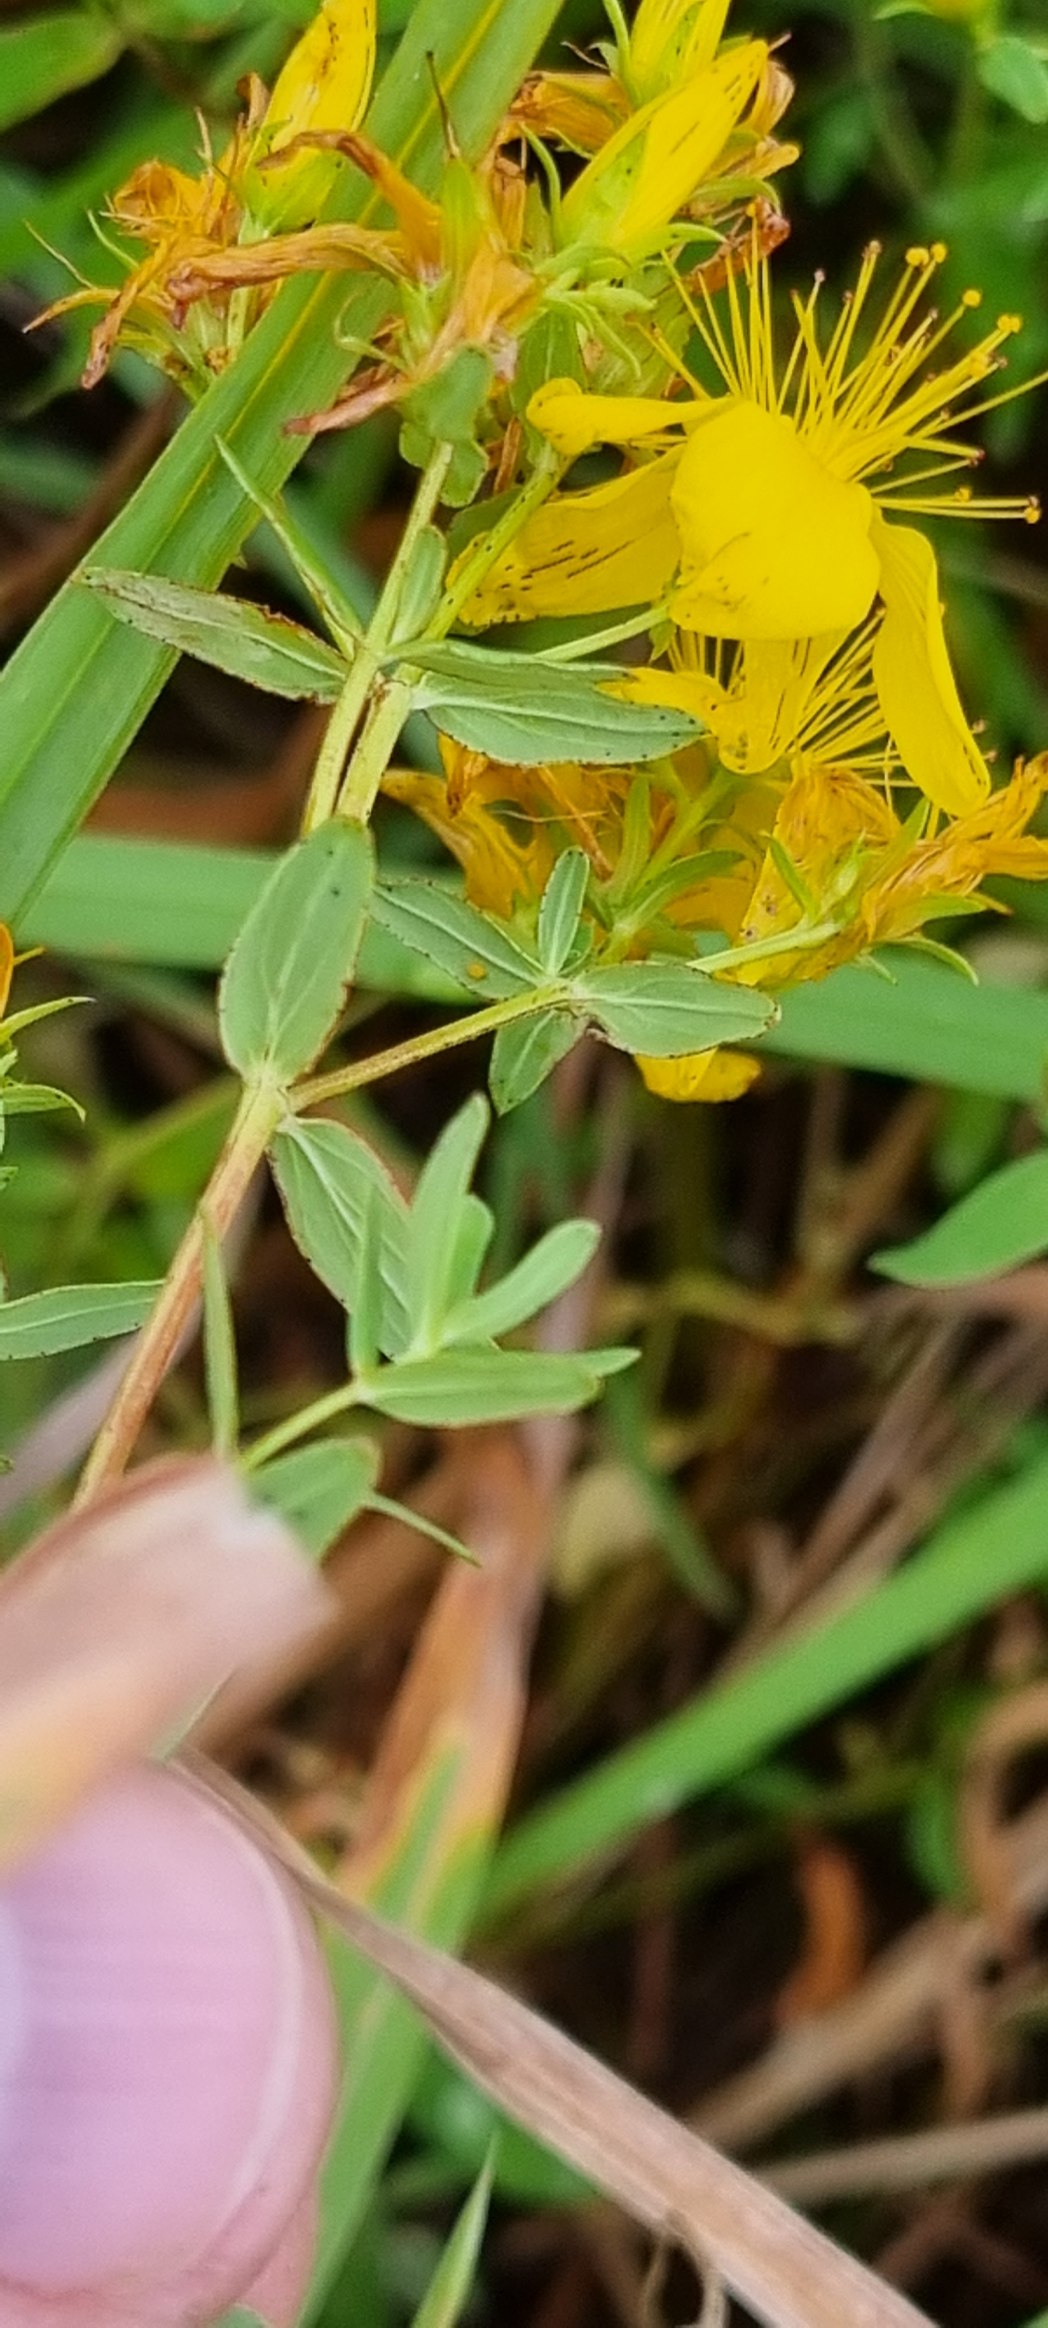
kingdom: Plantae
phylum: Tracheophyta
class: Magnoliopsida
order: Malpighiales
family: Hypericaceae
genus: Hypericum
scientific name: Hypericum perforatum
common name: Prikbladet perikon
